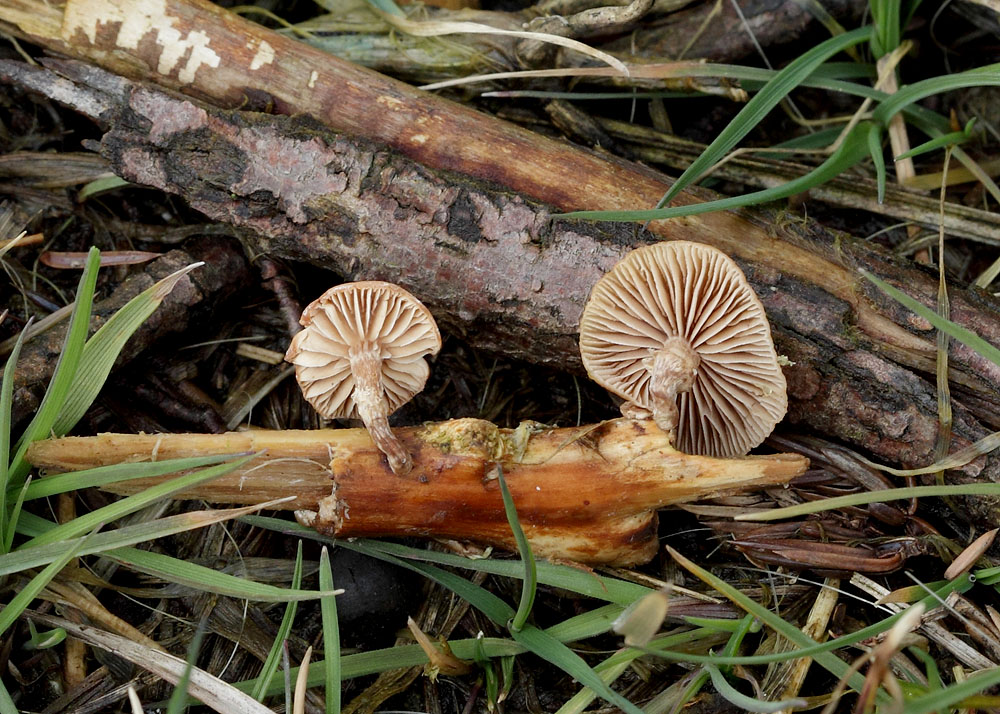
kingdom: Fungi
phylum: Basidiomycota
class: Agaricomycetes
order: Agaricales
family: Strophariaceae
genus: Deconica
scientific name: Deconica crobula
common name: træflis-stråhat
